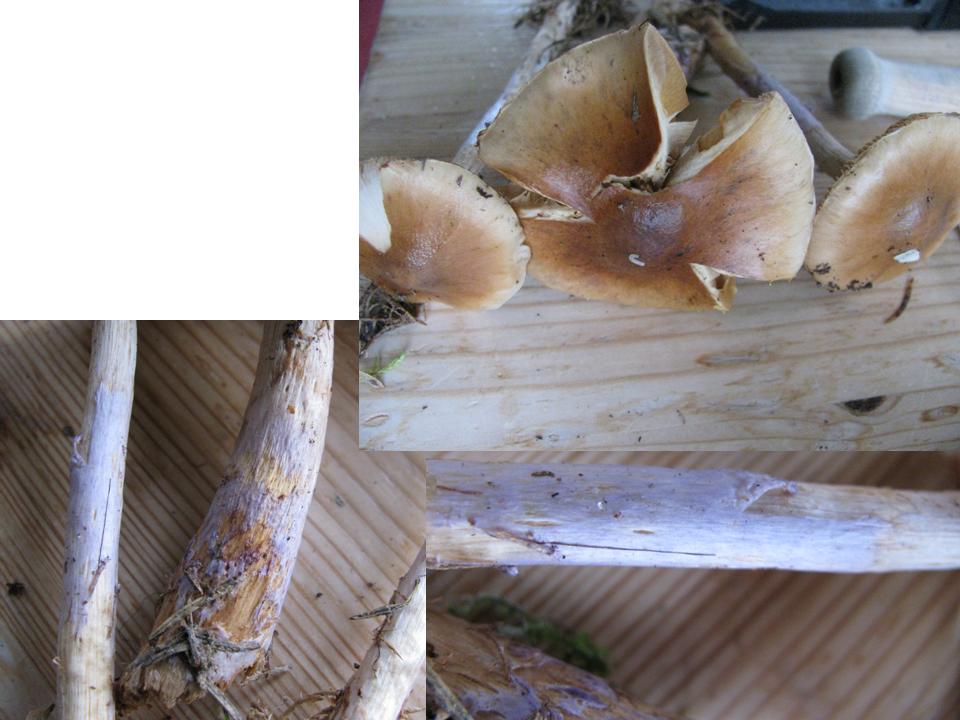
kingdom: Fungi
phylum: Basidiomycota
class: Agaricomycetes
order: Agaricales
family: Cortinariaceae
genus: Cortinarius
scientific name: Cortinarius collinitus
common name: spættet slørhat
